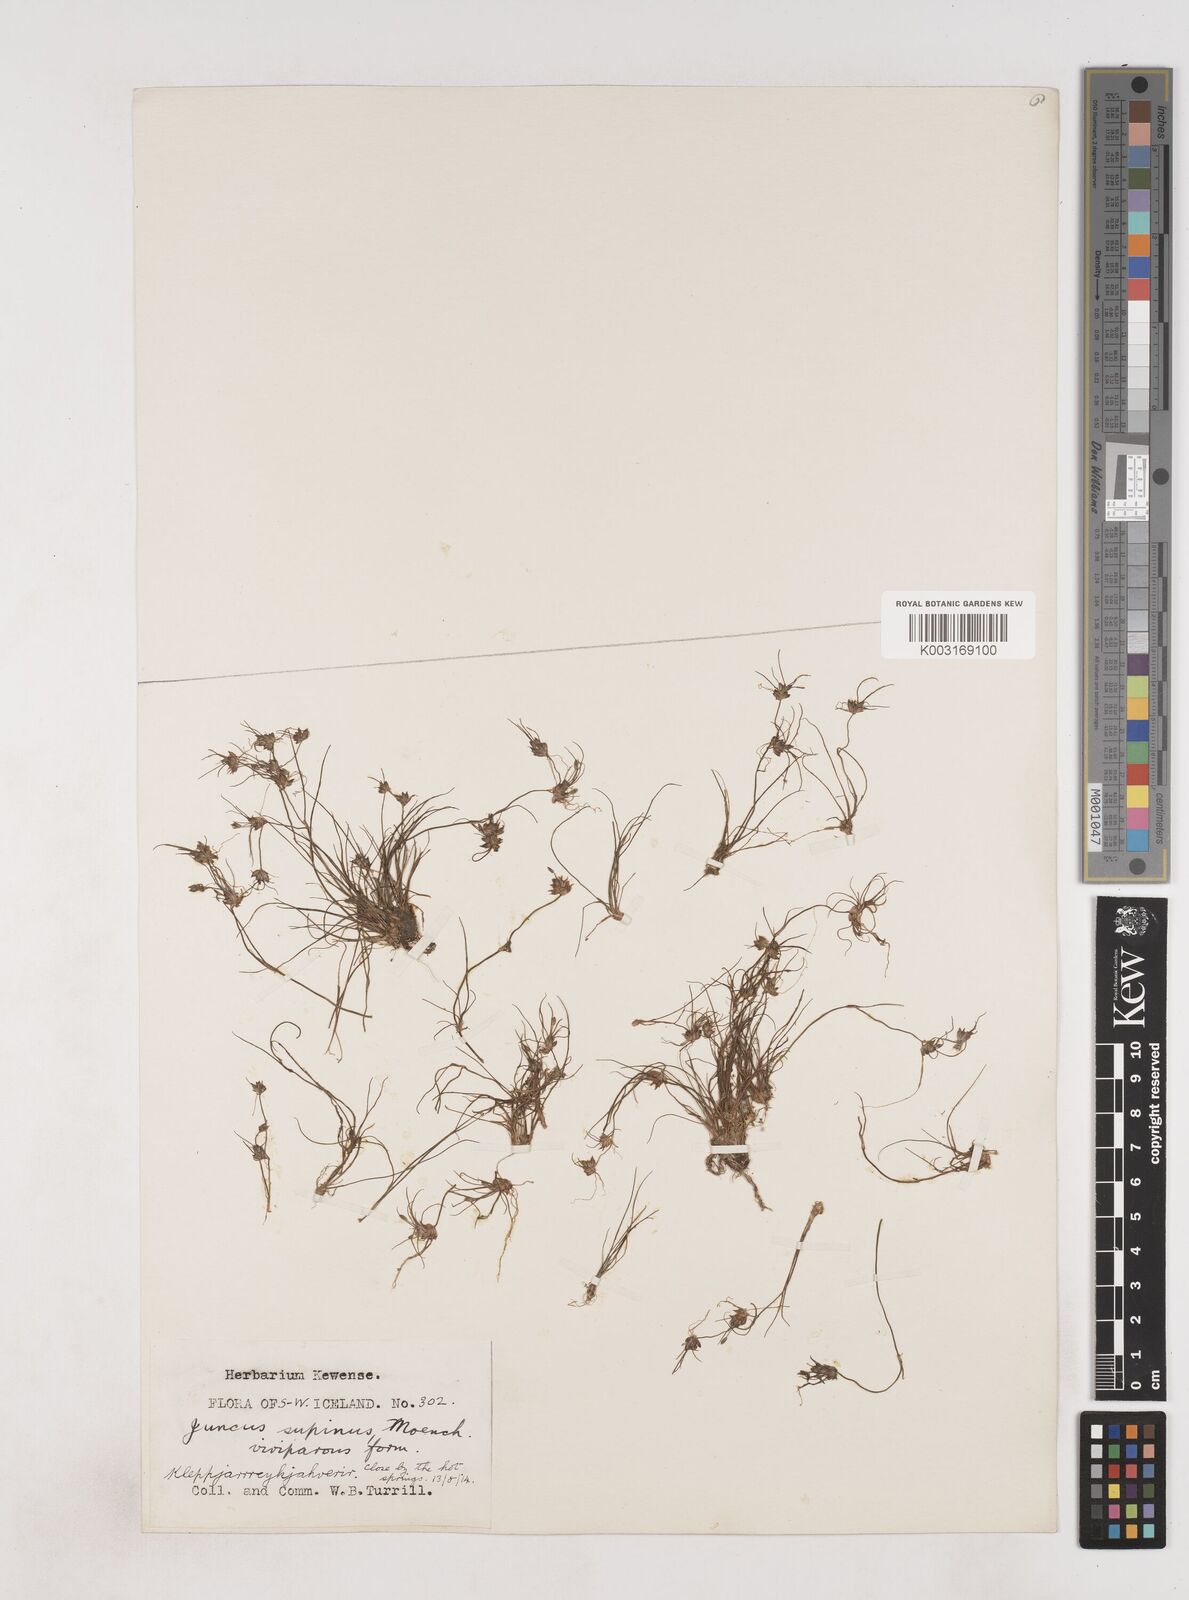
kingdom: Plantae
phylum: Tracheophyta
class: Liliopsida
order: Poales
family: Juncaceae
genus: Juncus
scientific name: Juncus bulbosus
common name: Bulbous rush
